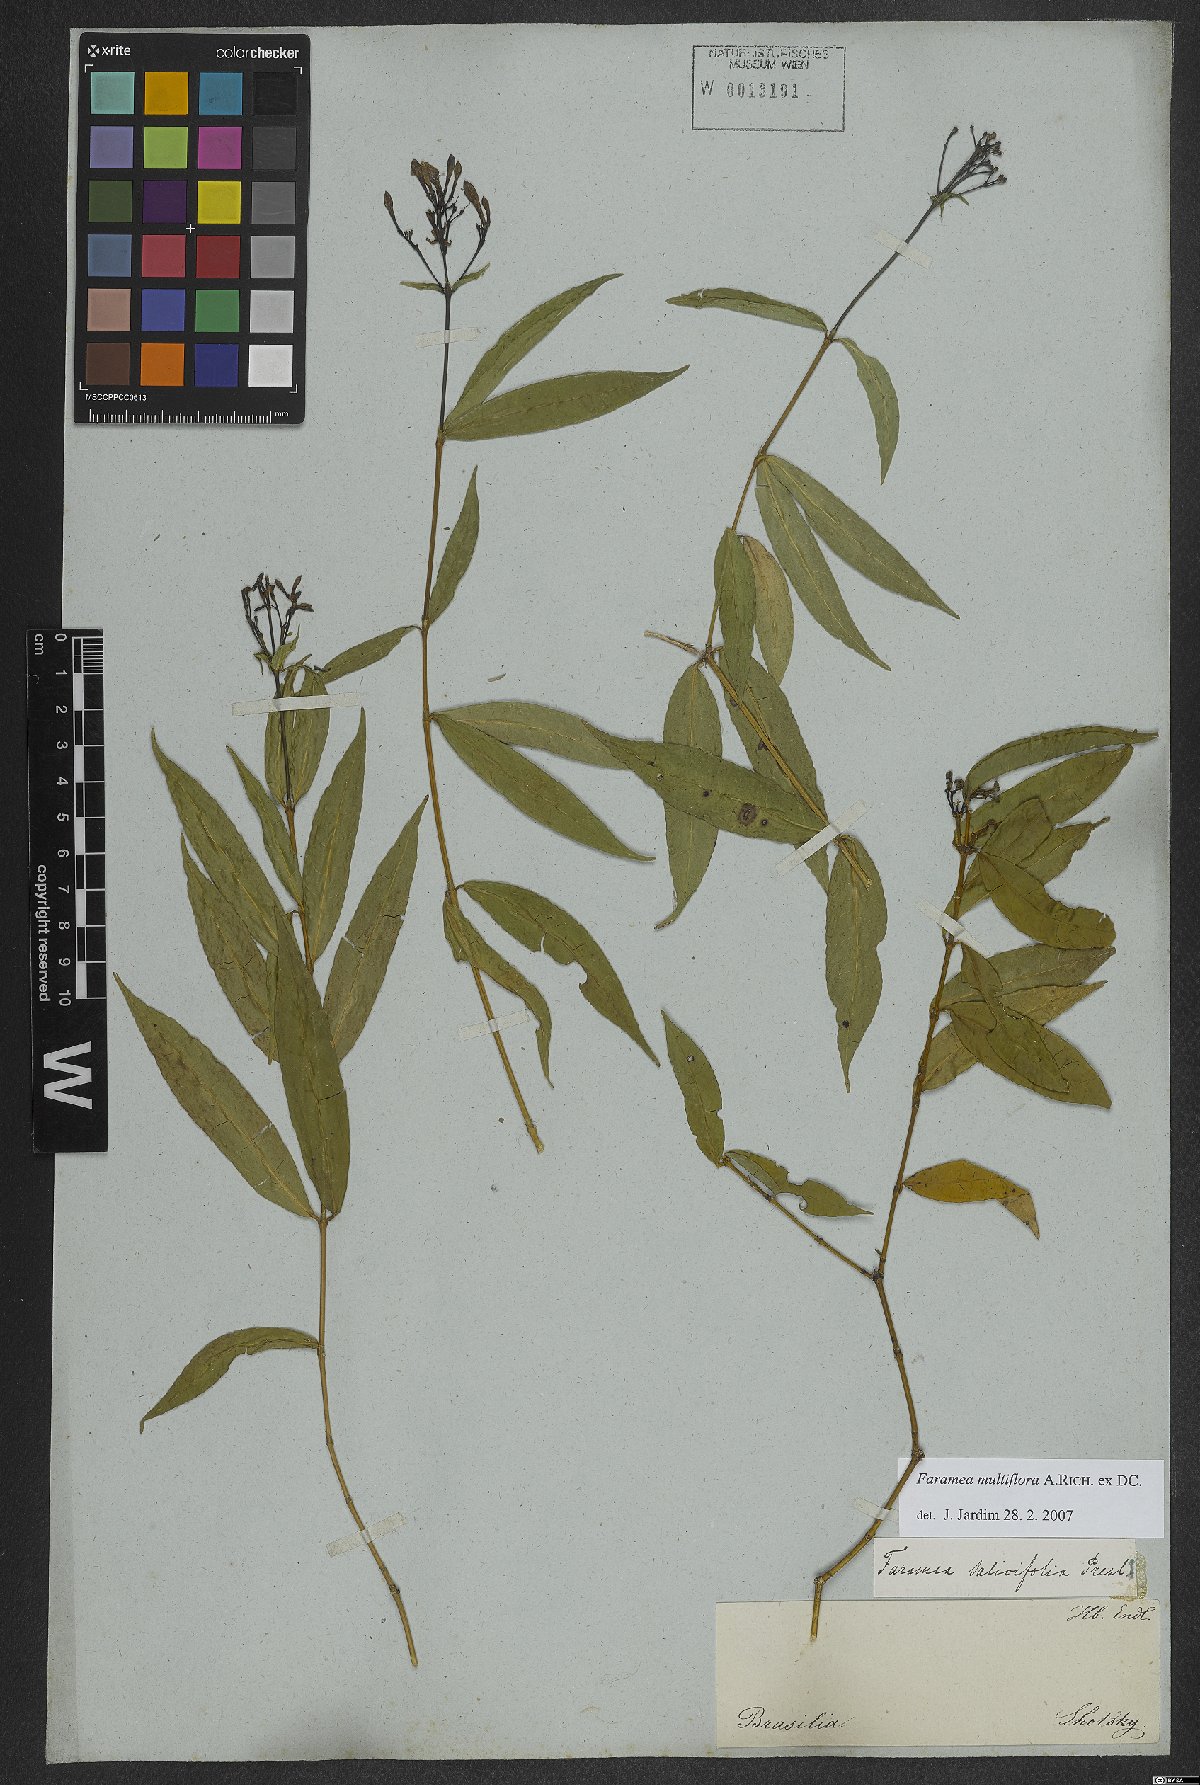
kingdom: Plantae
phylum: Tracheophyta
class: Magnoliopsida
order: Gentianales
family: Rubiaceae
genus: Faramea
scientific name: Faramea multiflora
